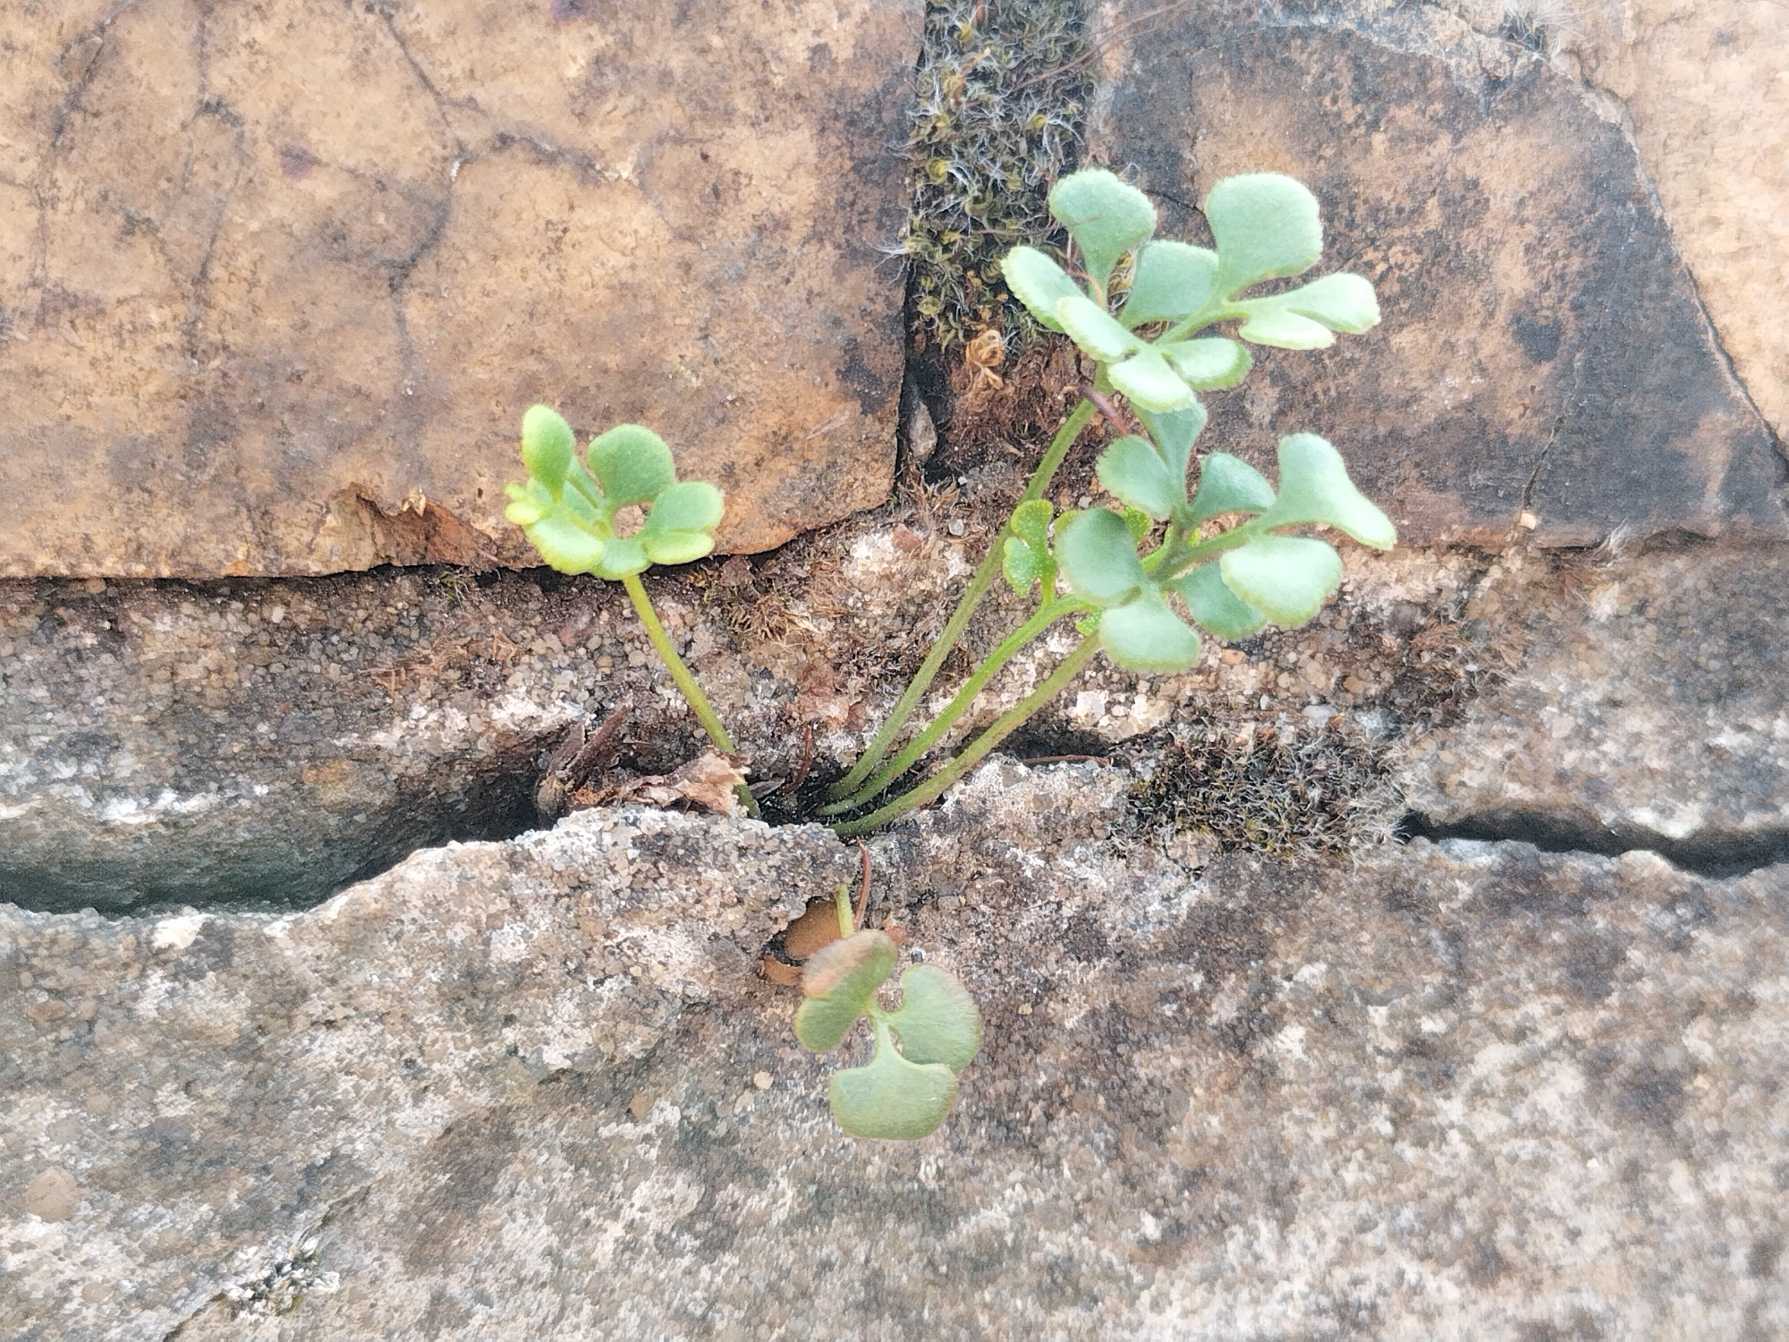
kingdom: Plantae
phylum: Tracheophyta
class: Polypodiopsida
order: Polypodiales
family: Aspleniaceae
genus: Asplenium
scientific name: Asplenium ruta-muraria
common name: Murrude
